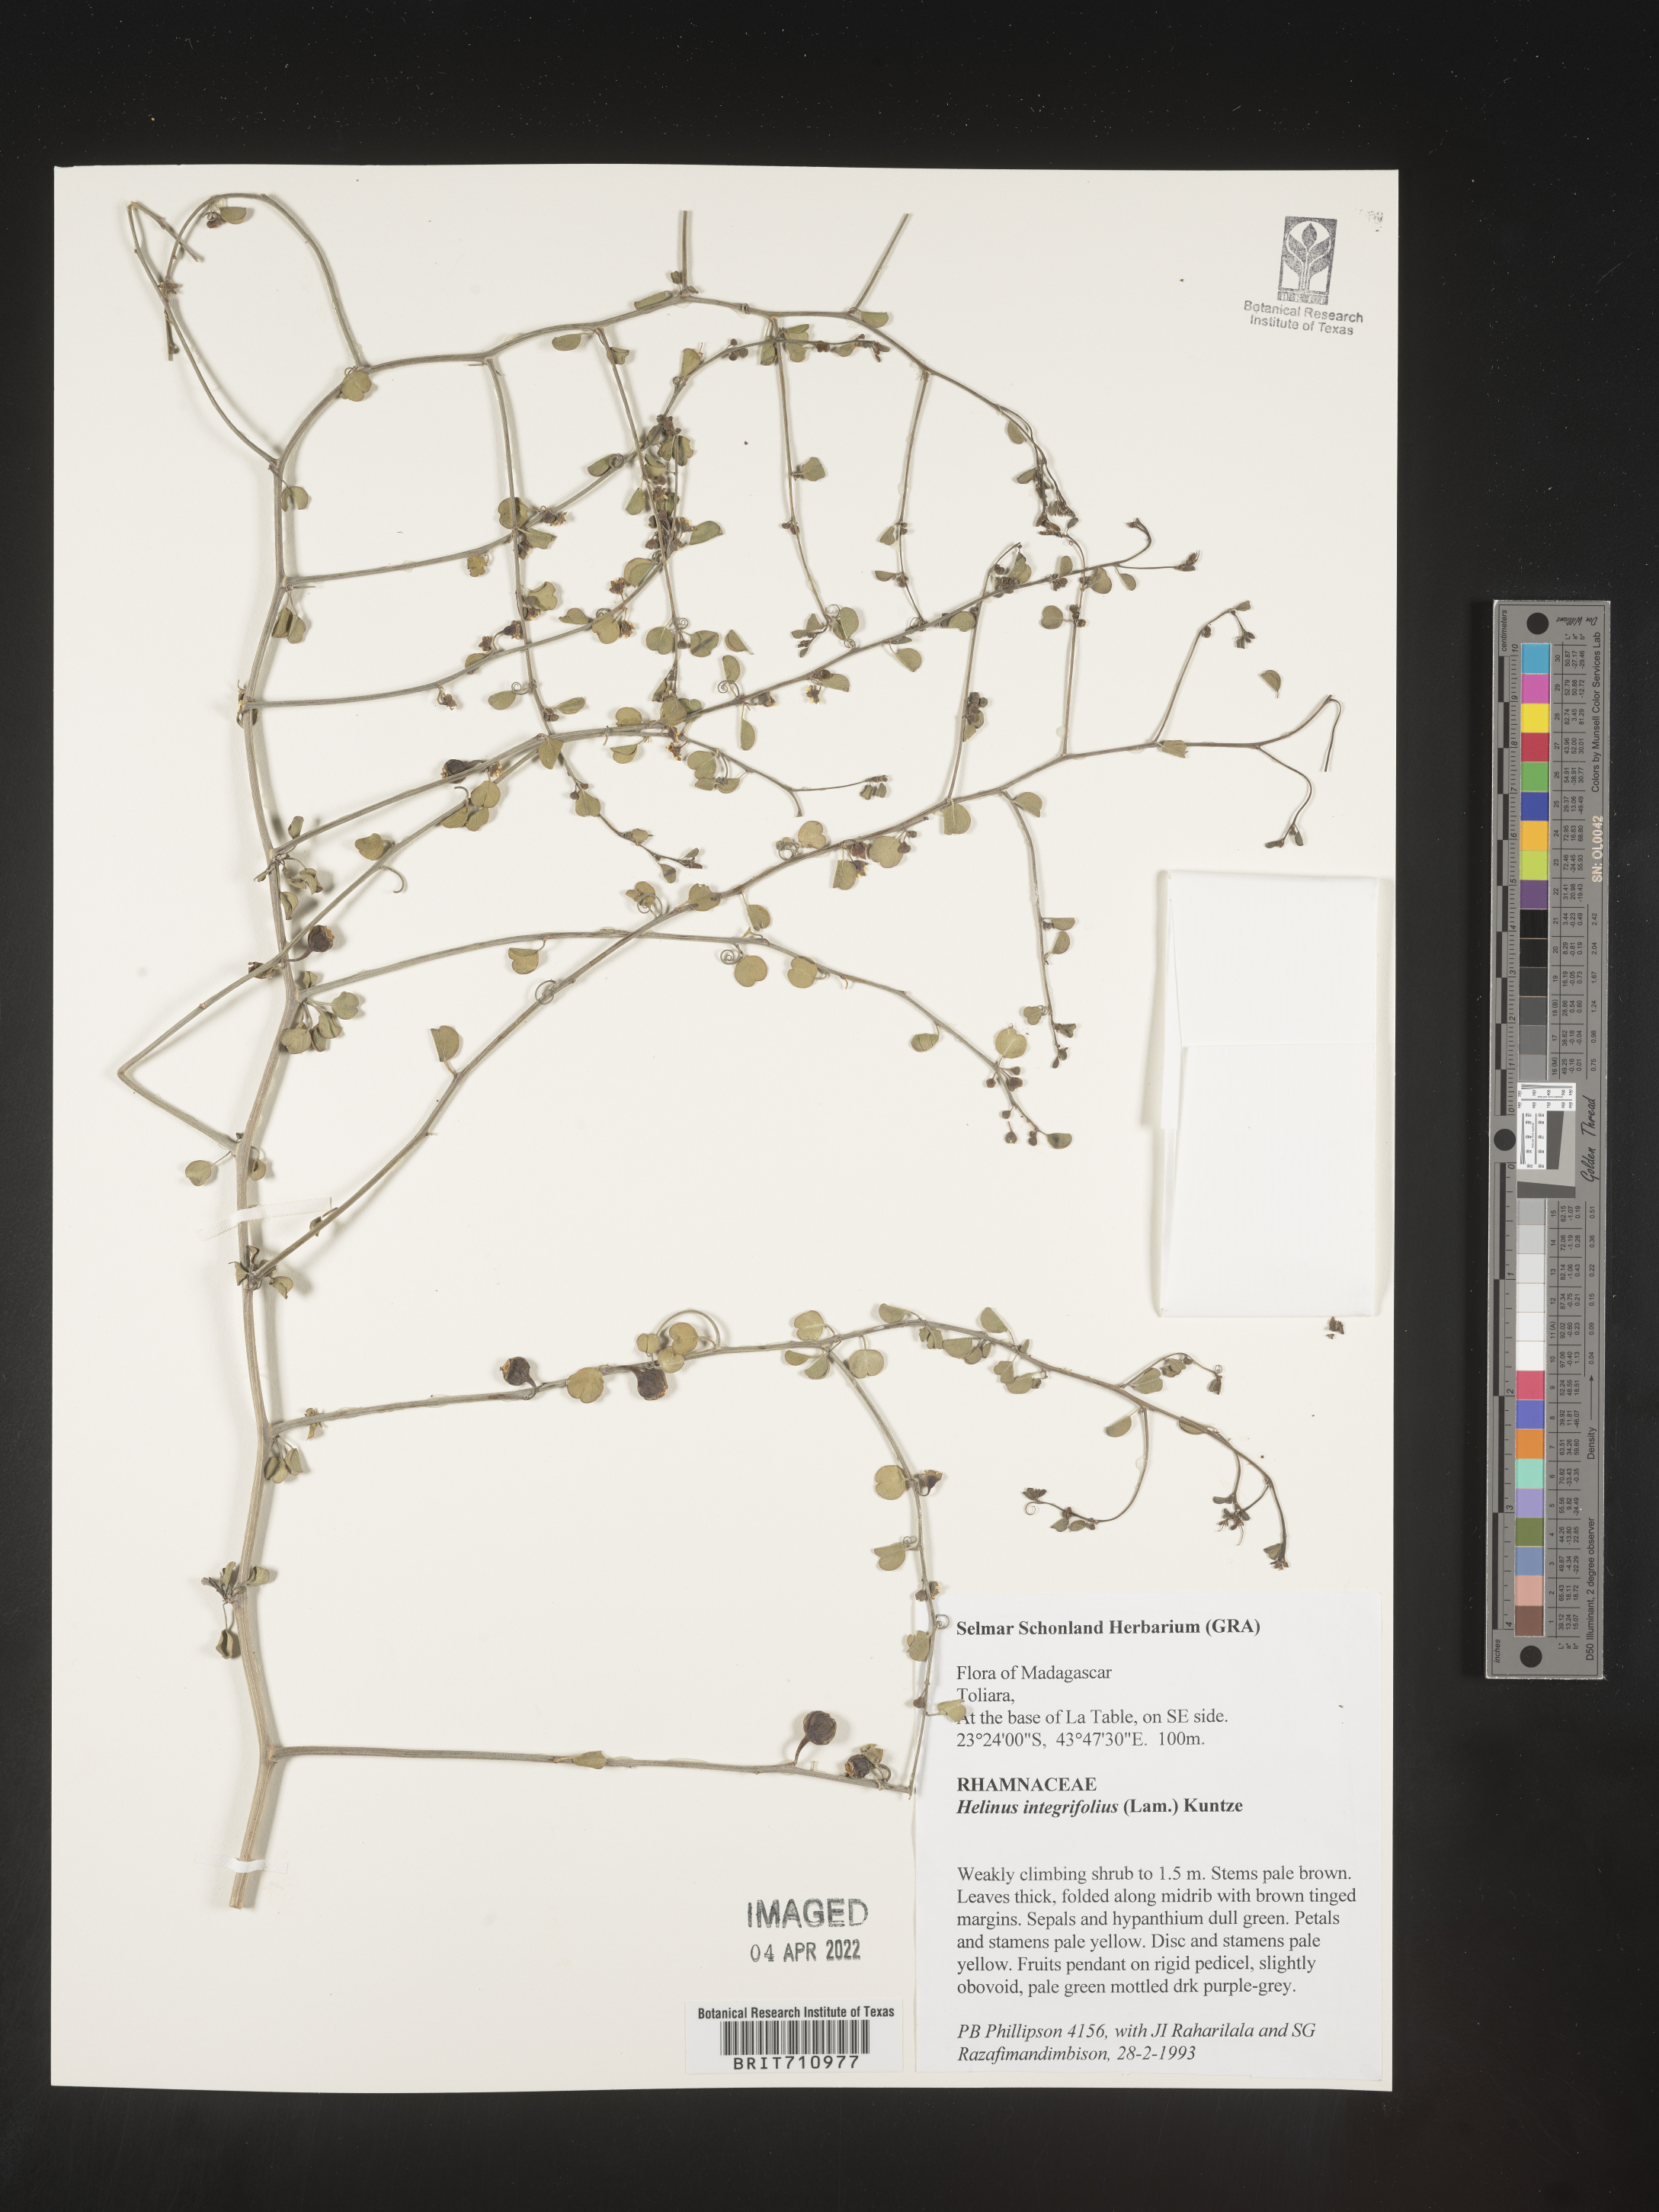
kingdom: Plantae
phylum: Tracheophyta
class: Magnoliopsida
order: Rosales
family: Rhamnaceae
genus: Helinus
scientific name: Helinus
